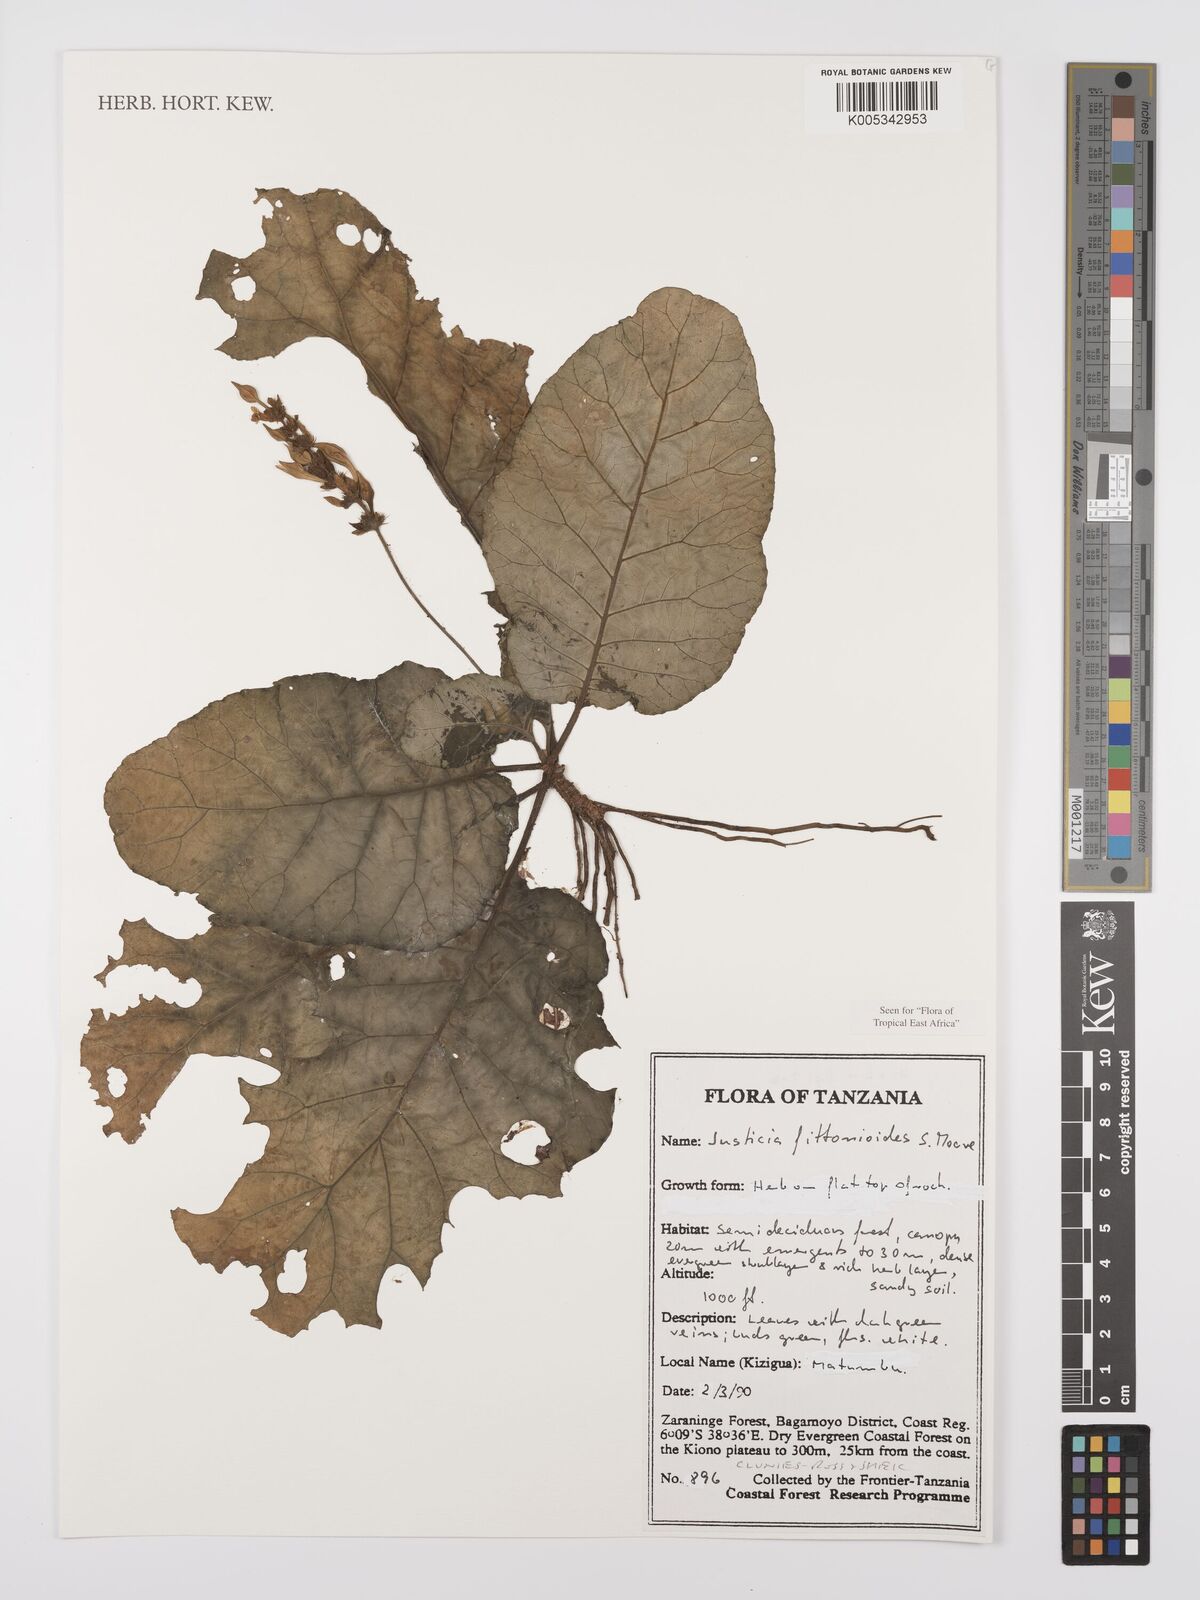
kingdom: Plantae
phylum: Tracheophyta
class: Magnoliopsida
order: Lamiales
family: Acanthaceae
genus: Justicia
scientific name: Justicia
